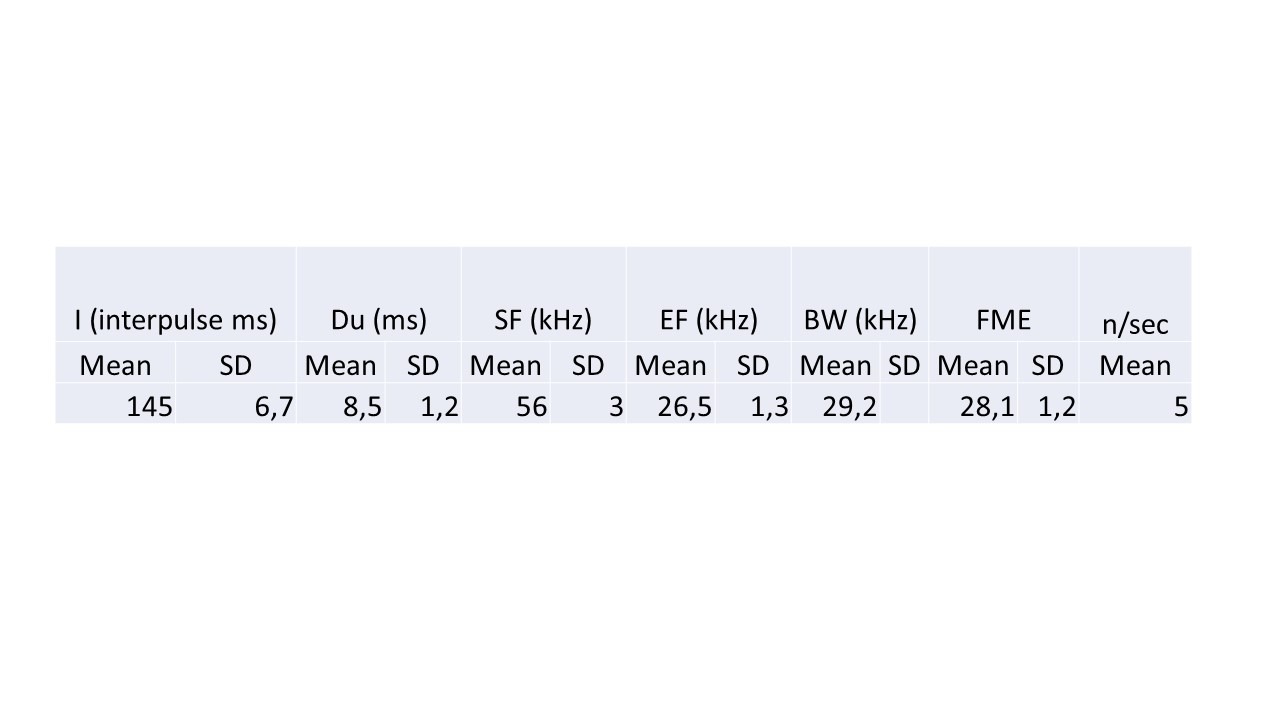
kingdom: Animalia
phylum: Chordata
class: Mammalia
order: Chiroptera
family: Vespertilionidae
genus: Eptesicus
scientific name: Eptesicus serotinus
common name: Sydflagermus
